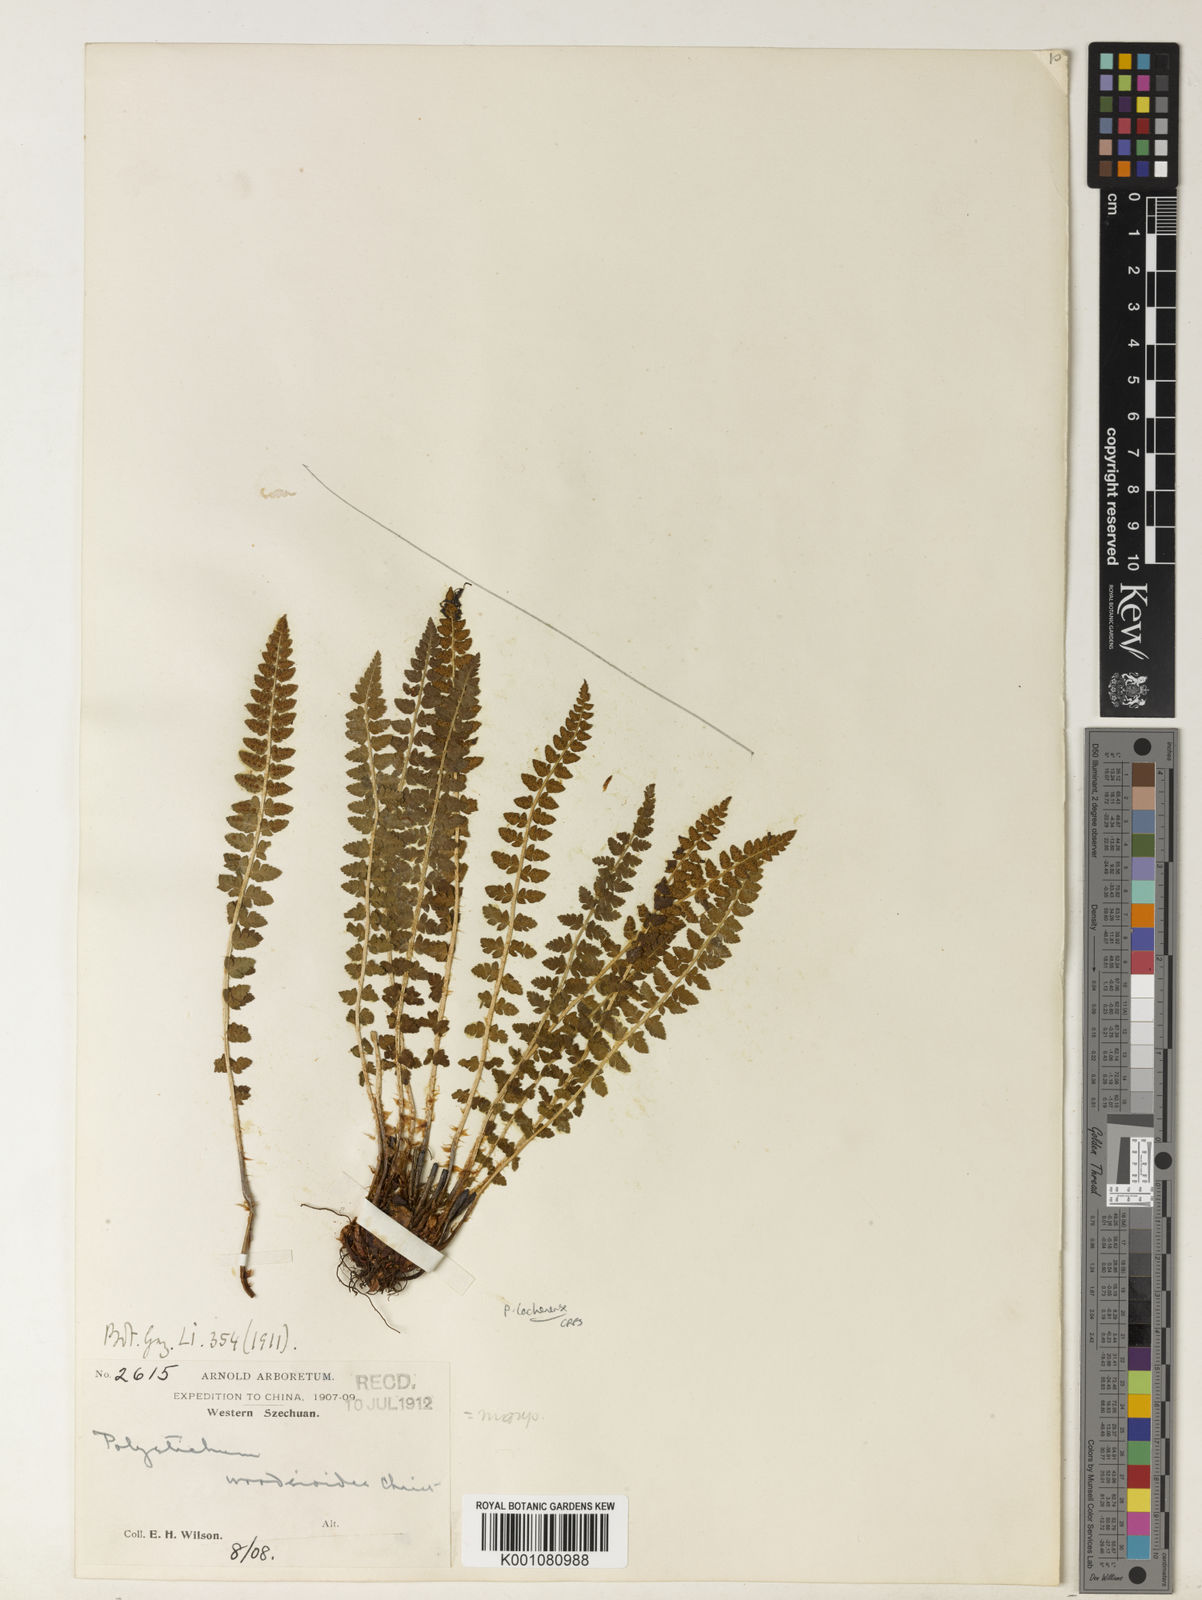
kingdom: Plantae
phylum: Tracheophyta
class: Polypodiopsida
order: Polypodiales
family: Dryopteridaceae
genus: Polystichum
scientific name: Polystichum lachenense
